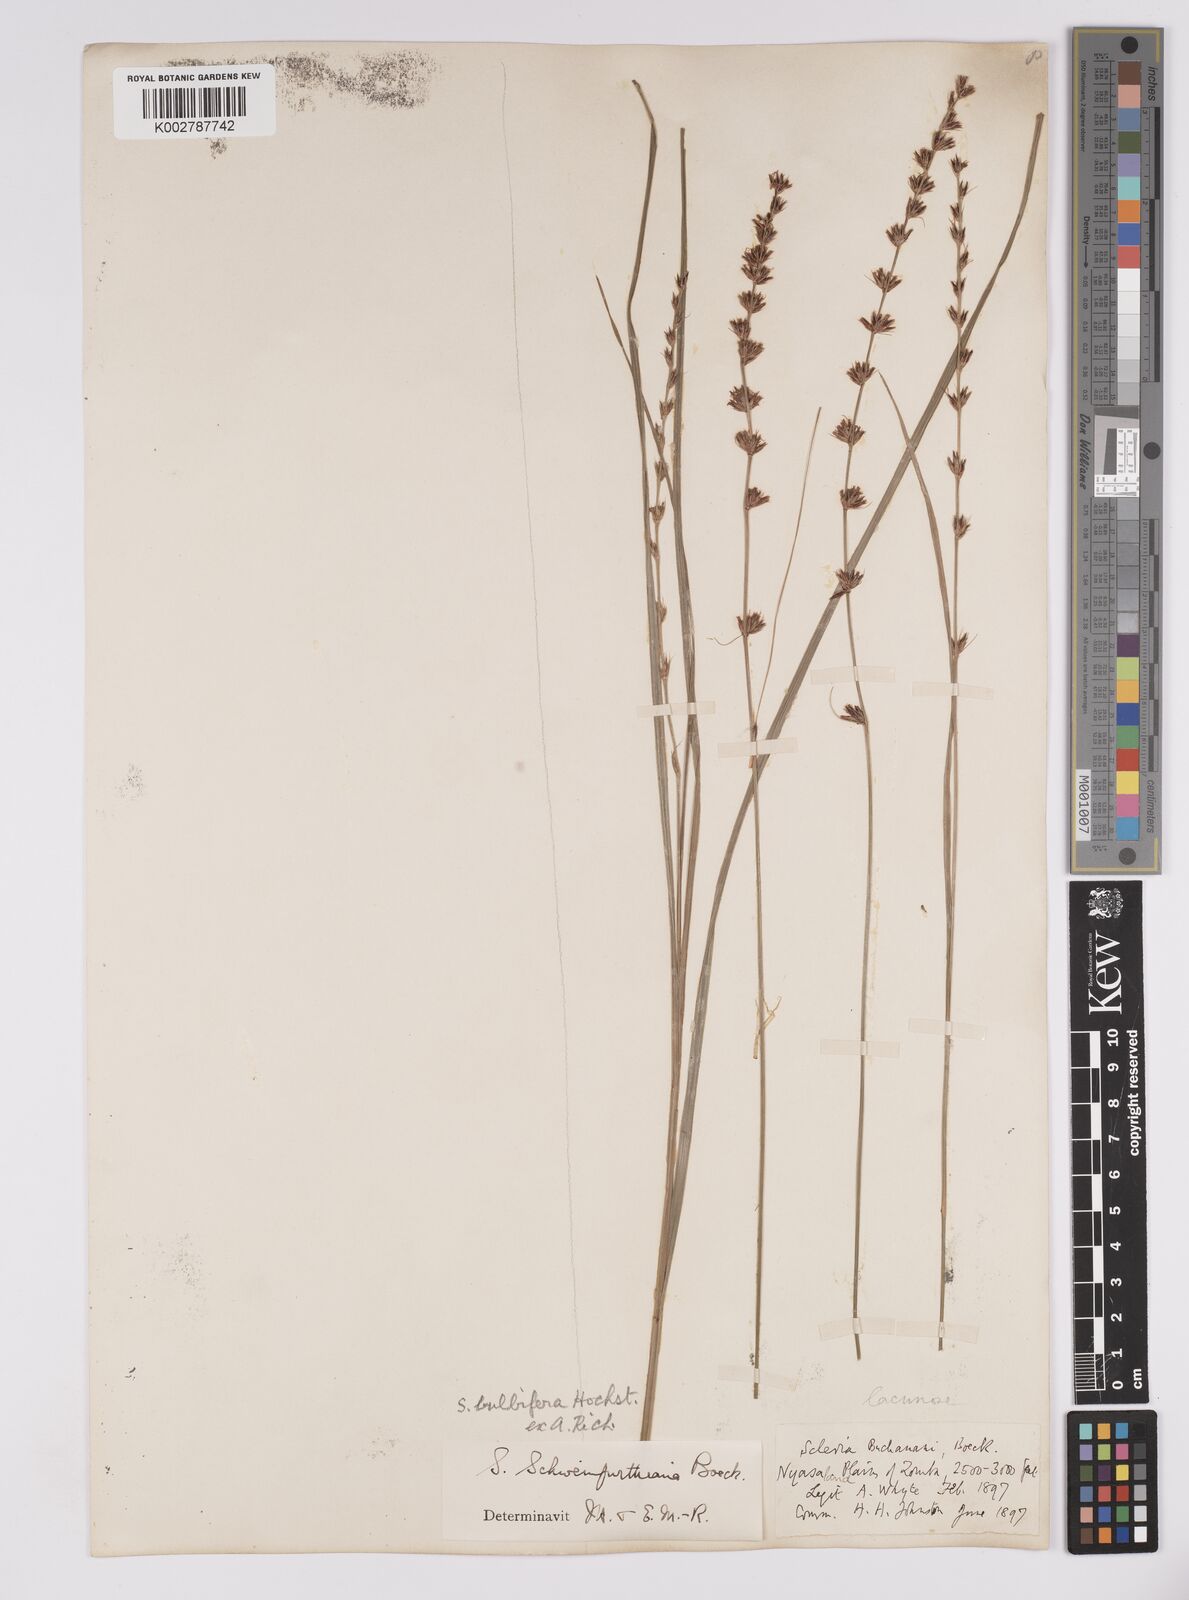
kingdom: Plantae
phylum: Tracheophyta
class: Liliopsida
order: Poales
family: Cyperaceae
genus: Scleria
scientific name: Scleria bulbifera
